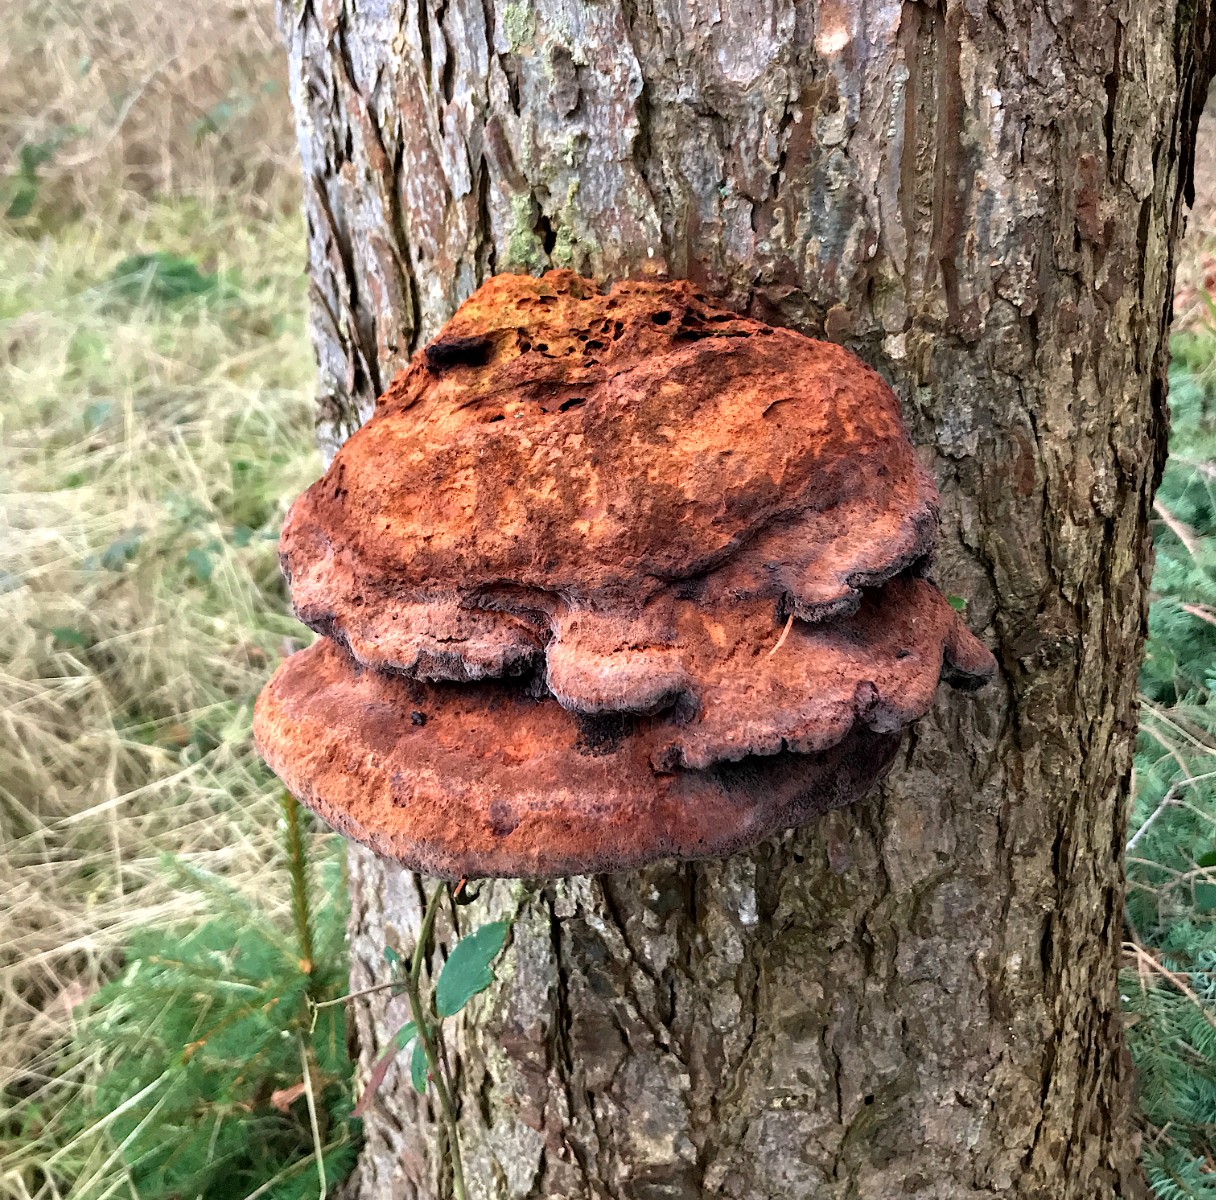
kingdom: Fungi
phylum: Basidiomycota
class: Agaricomycetes
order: Polyporales
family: Laetiporaceae
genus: Phaeolus
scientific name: Phaeolus schweinitzii
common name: brunporesvamp
